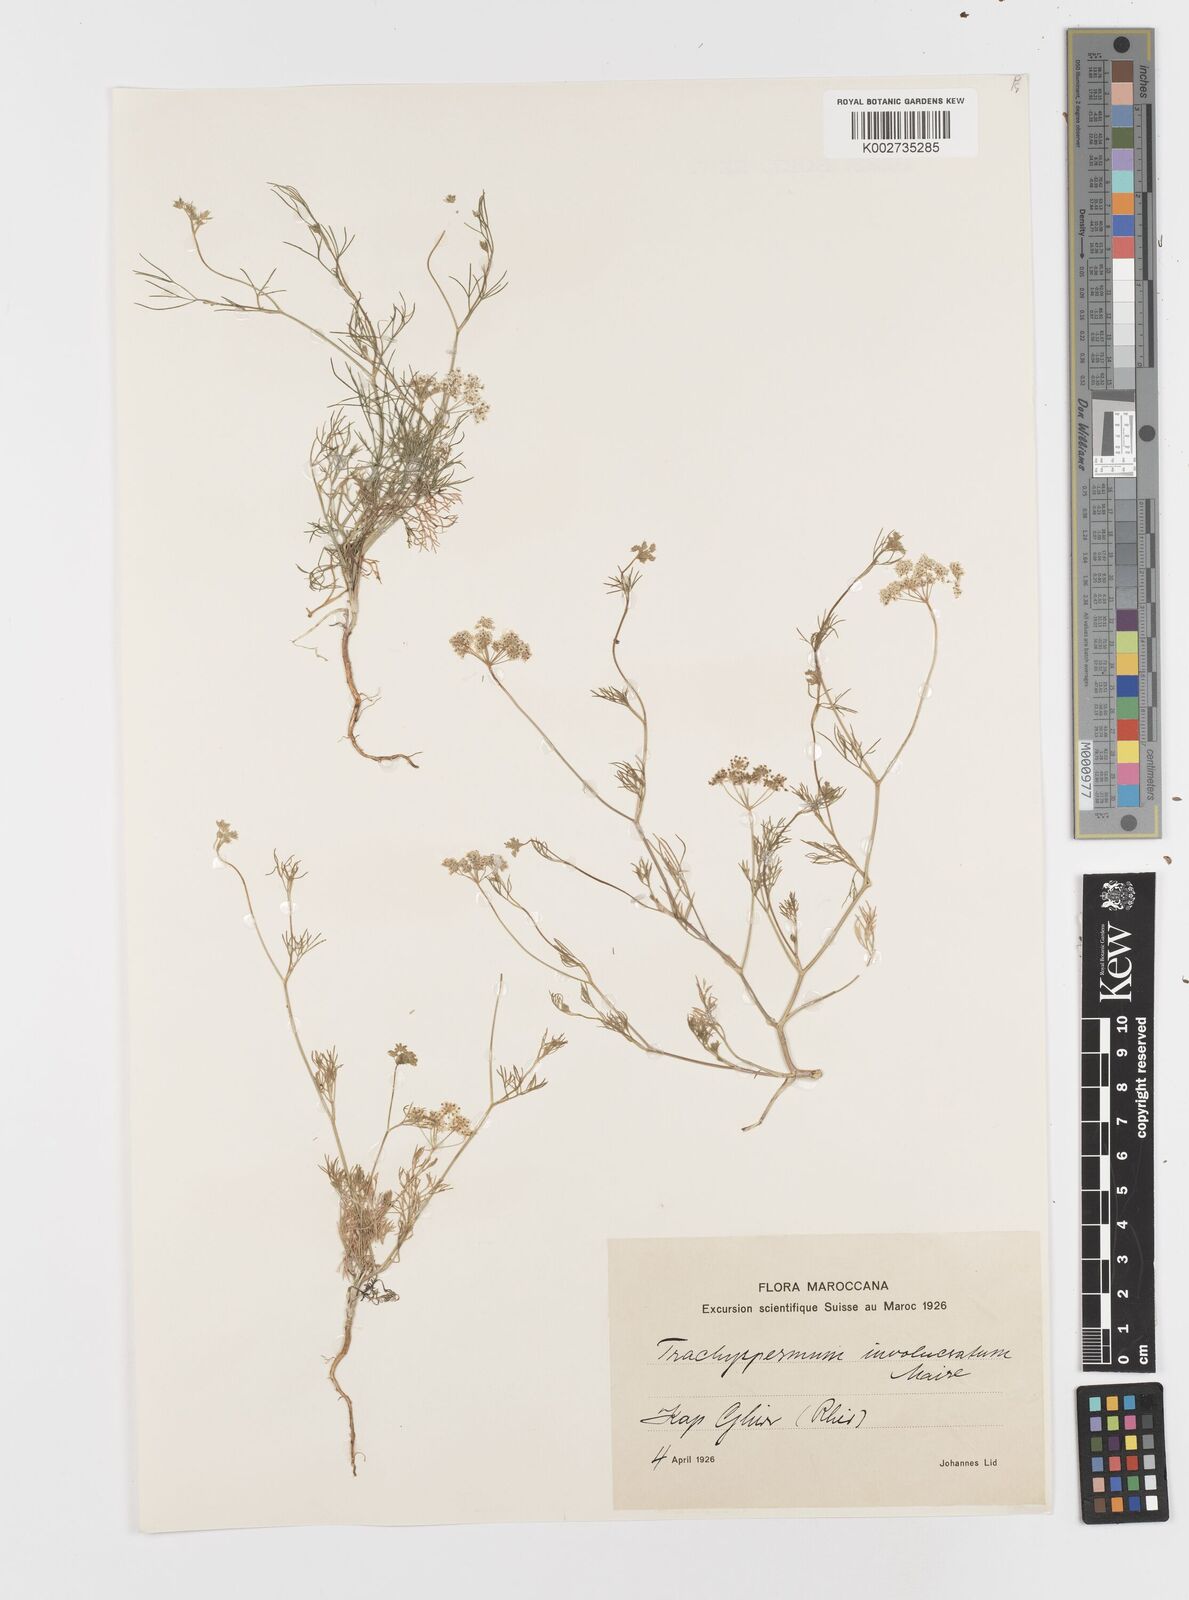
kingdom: Plantae
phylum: Tracheophyta
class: Magnoliopsida
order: Apiales
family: Apiaceae
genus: Modesciadium
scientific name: Modesciadium involucratum
